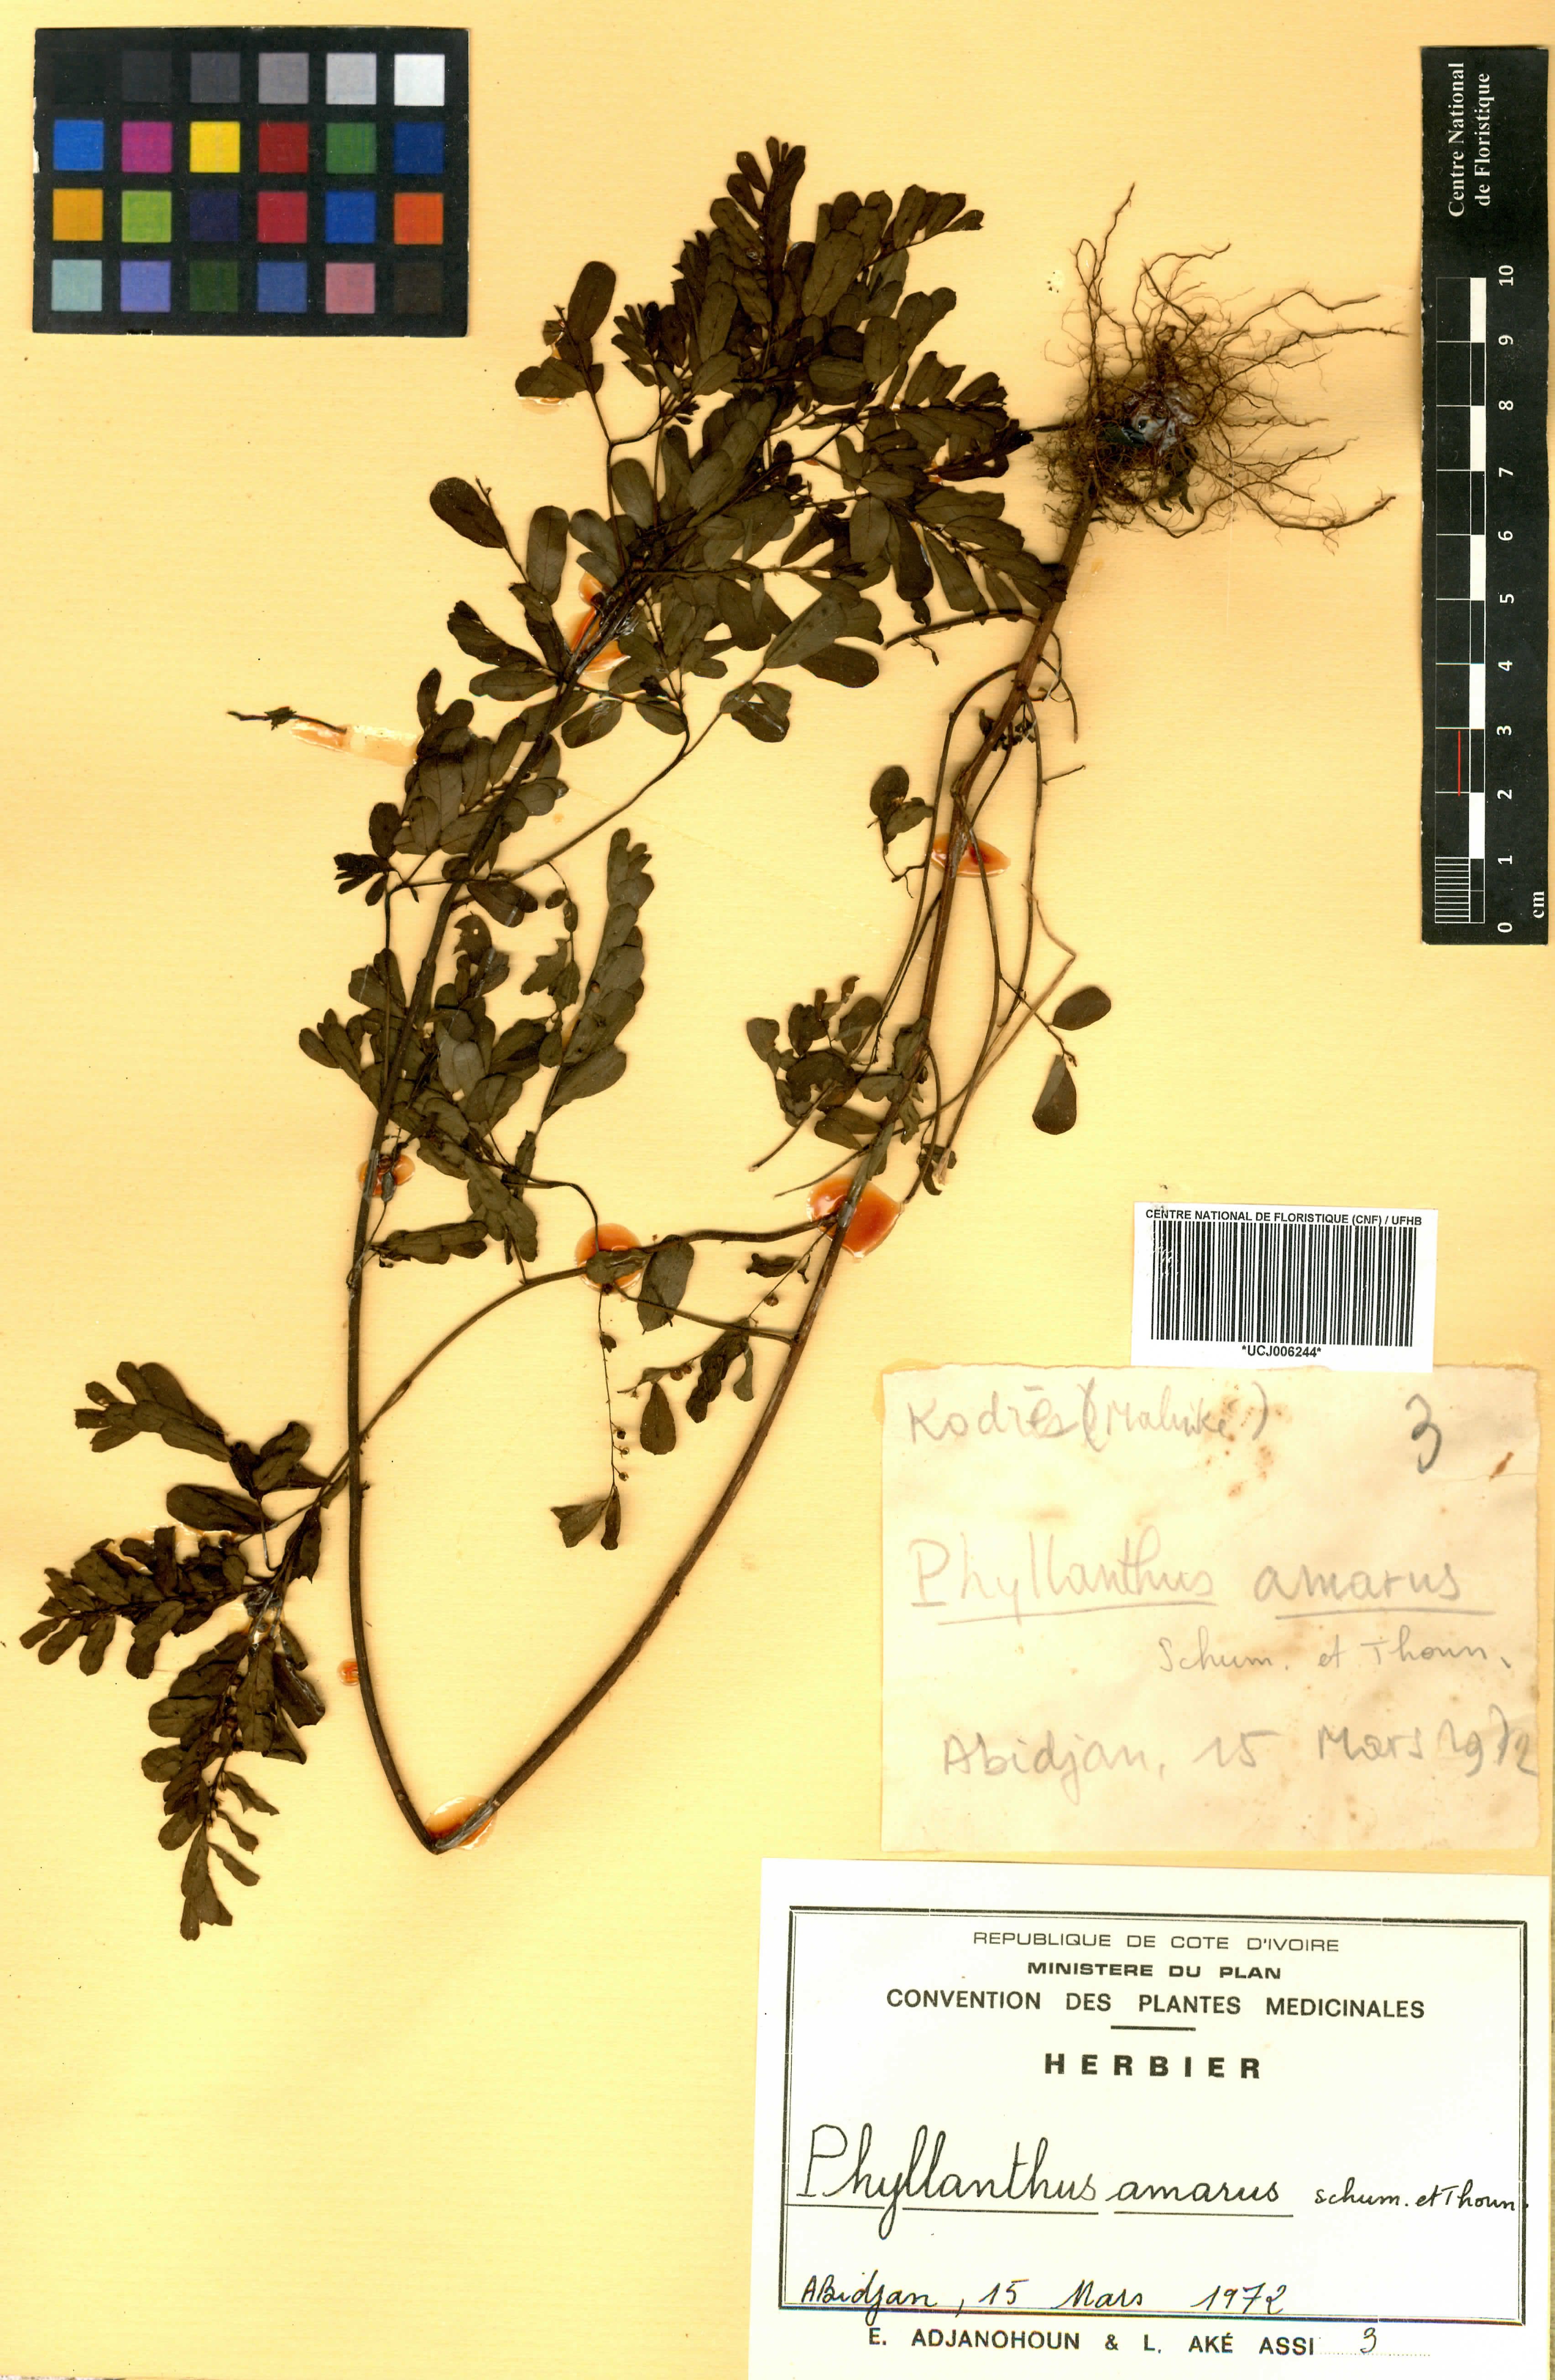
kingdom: Plantae
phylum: Tracheophyta
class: Magnoliopsida
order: Malpighiales
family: Phyllanthaceae
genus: Phyllanthus
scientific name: Phyllanthus amarus
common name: Carry me seed
